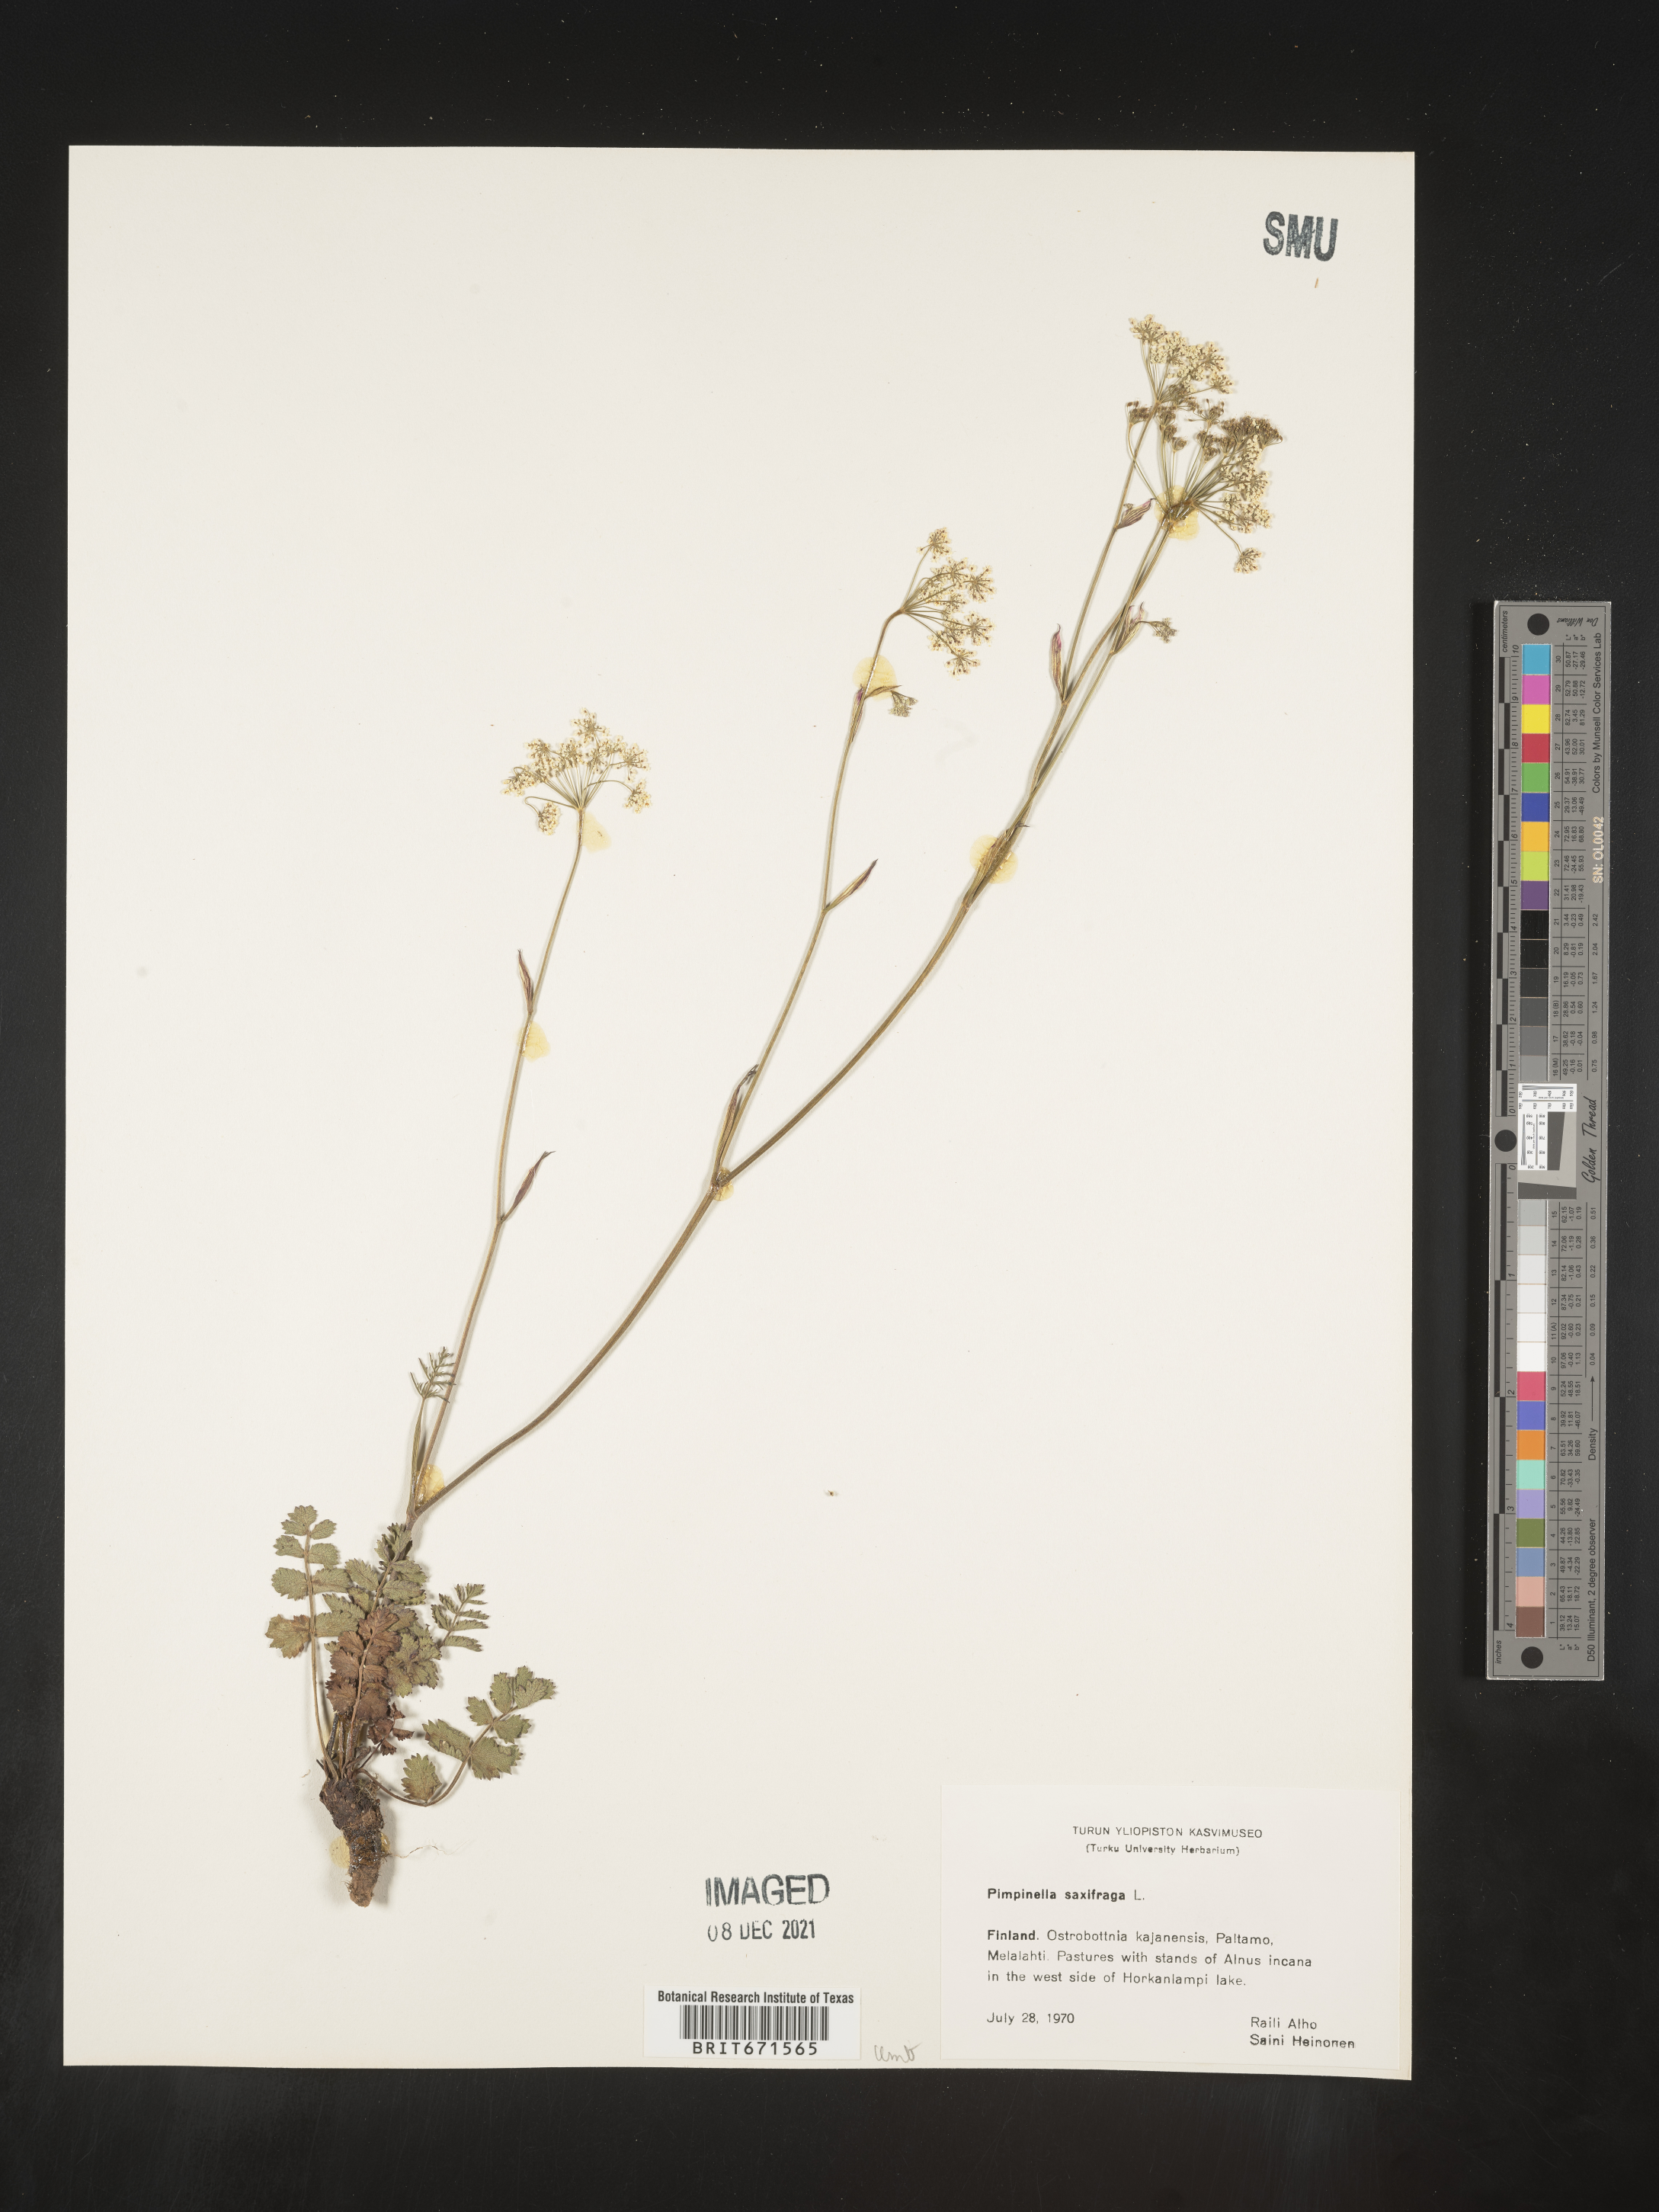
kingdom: Plantae
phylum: Tracheophyta
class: Magnoliopsida
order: Apiales
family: Apiaceae
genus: Pimpinella
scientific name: Pimpinella
